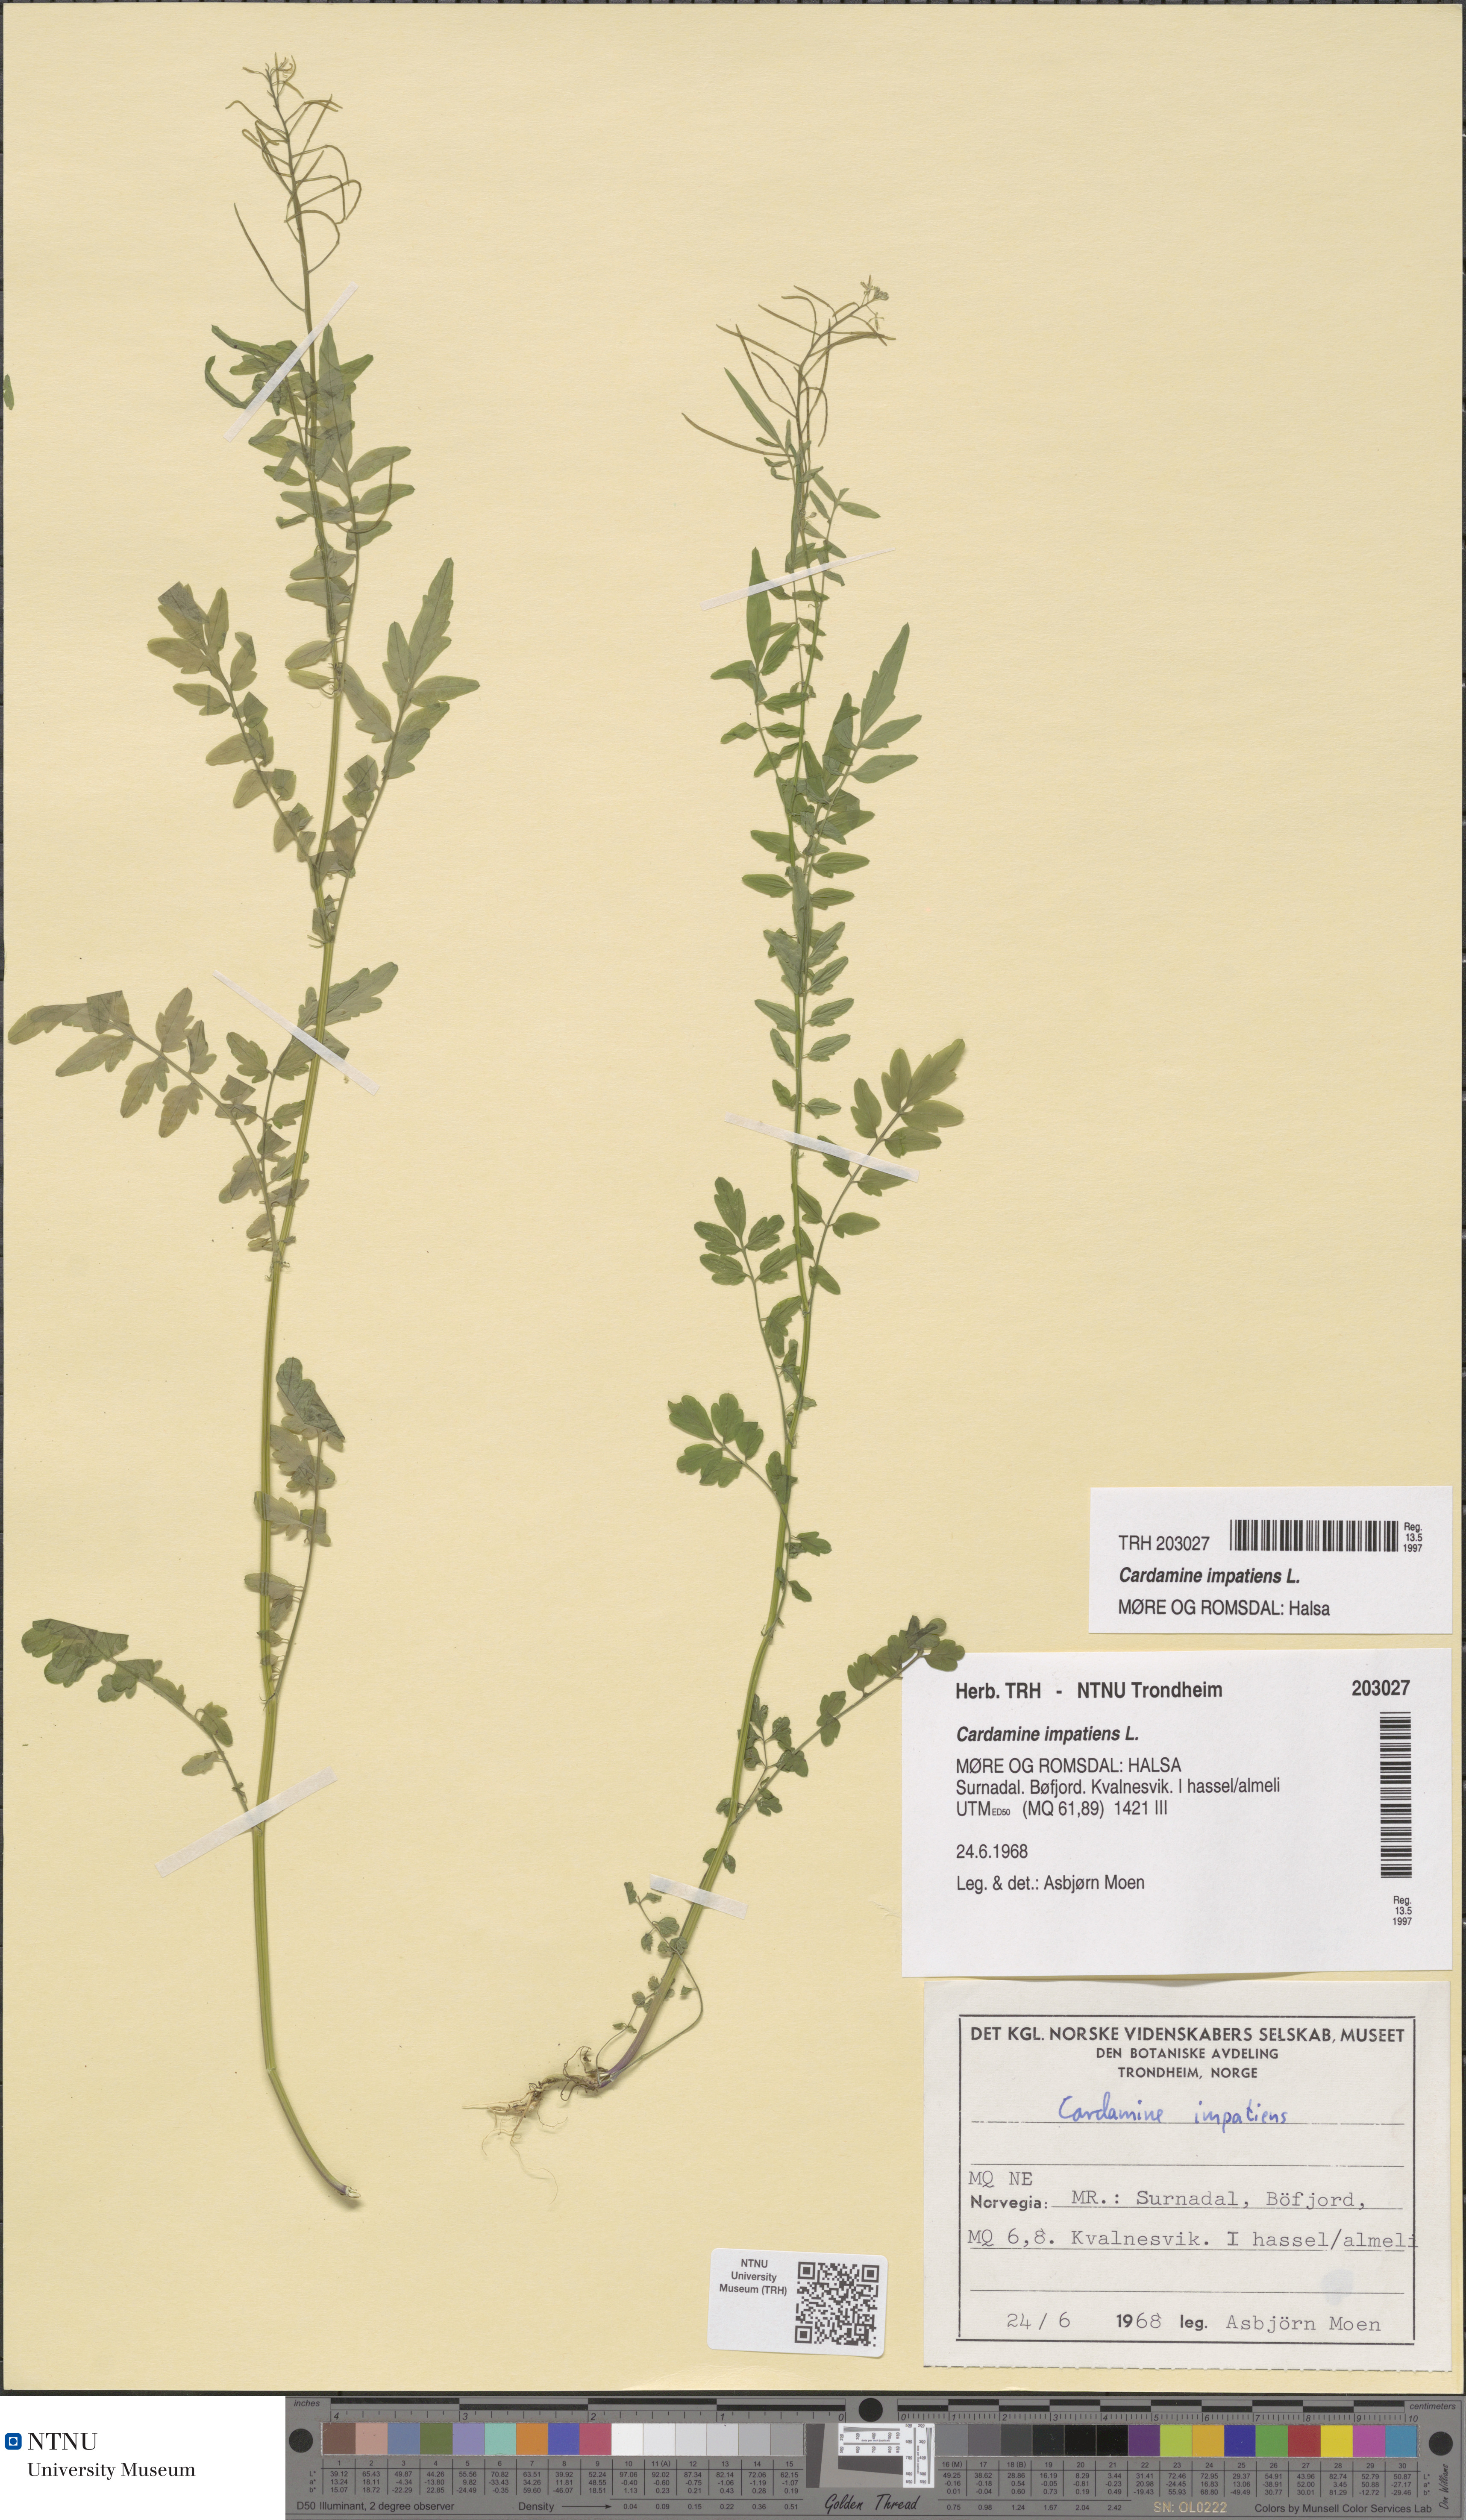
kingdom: Plantae
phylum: Tracheophyta
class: Magnoliopsida
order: Brassicales
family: Brassicaceae
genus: Cardamine
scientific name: Cardamine impatiens
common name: Narrow-leaved bitter-cress
